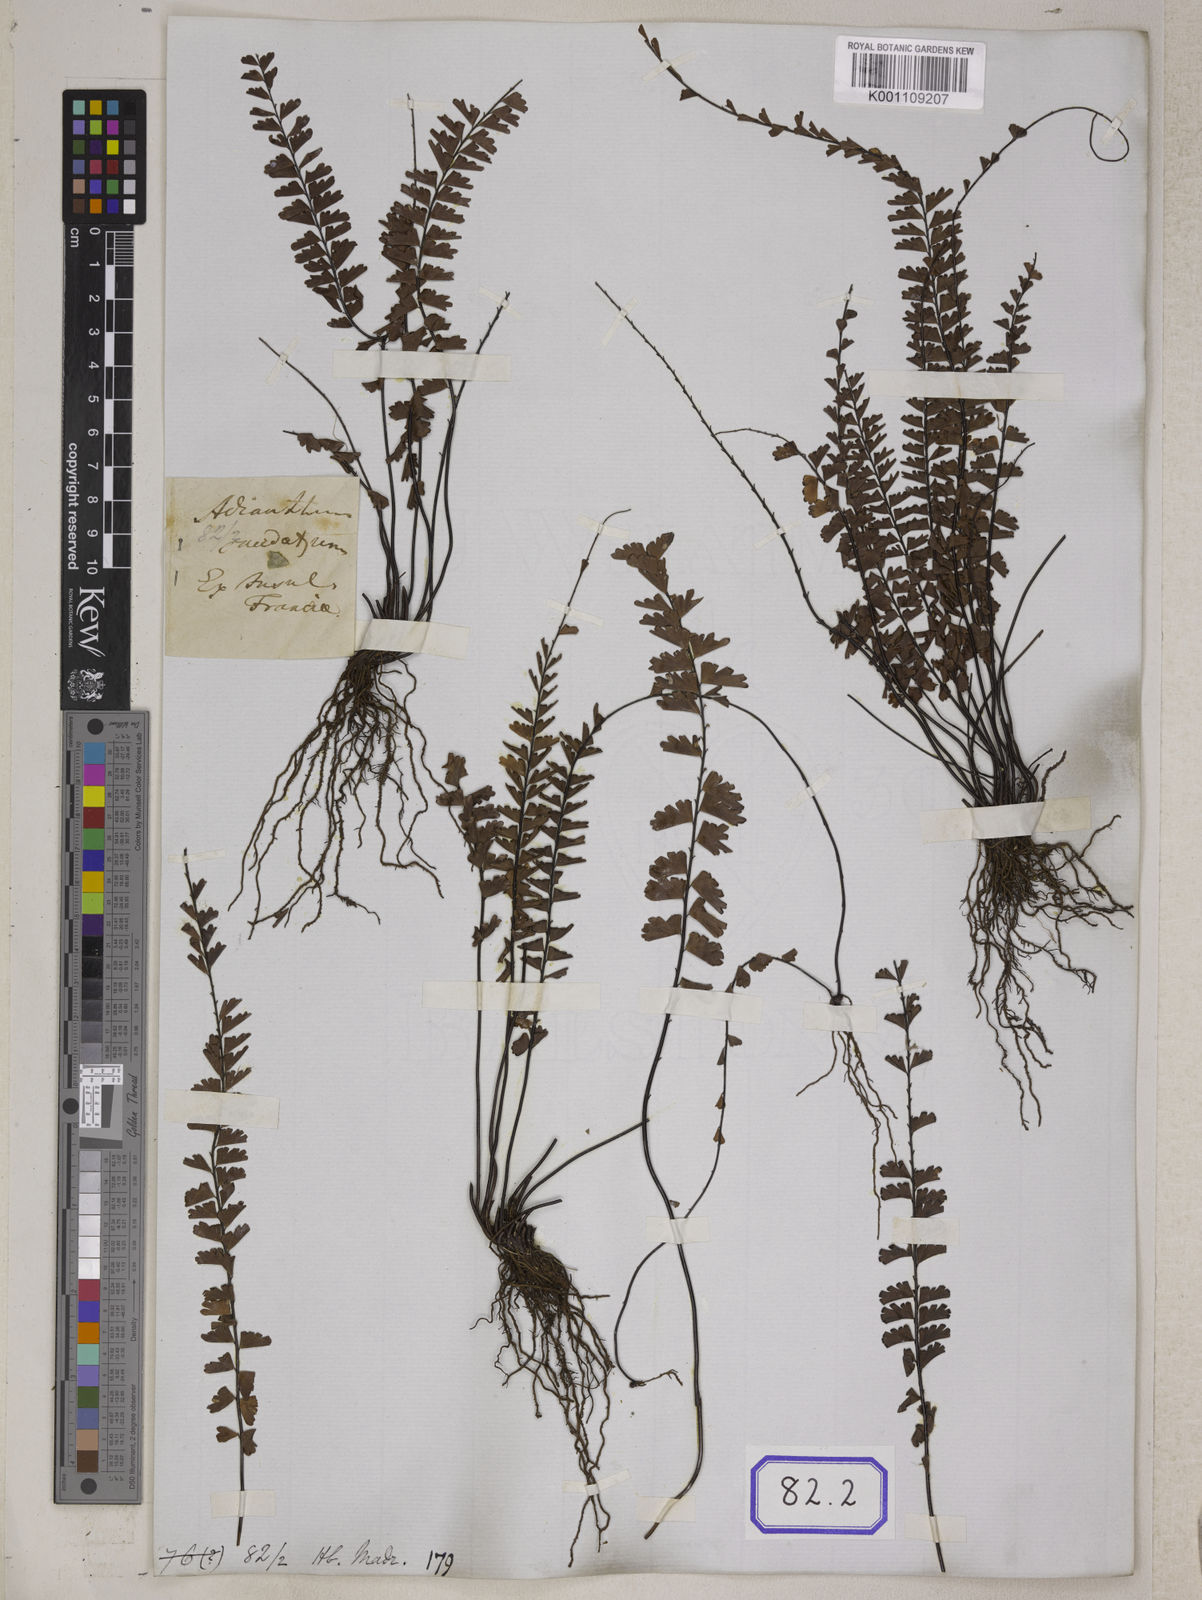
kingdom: Plantae
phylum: Tracheophyta
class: Polypodiopsida
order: Polypodiales
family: Pteridaceae
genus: Adiantum
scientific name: Adiantum rhizophorum
